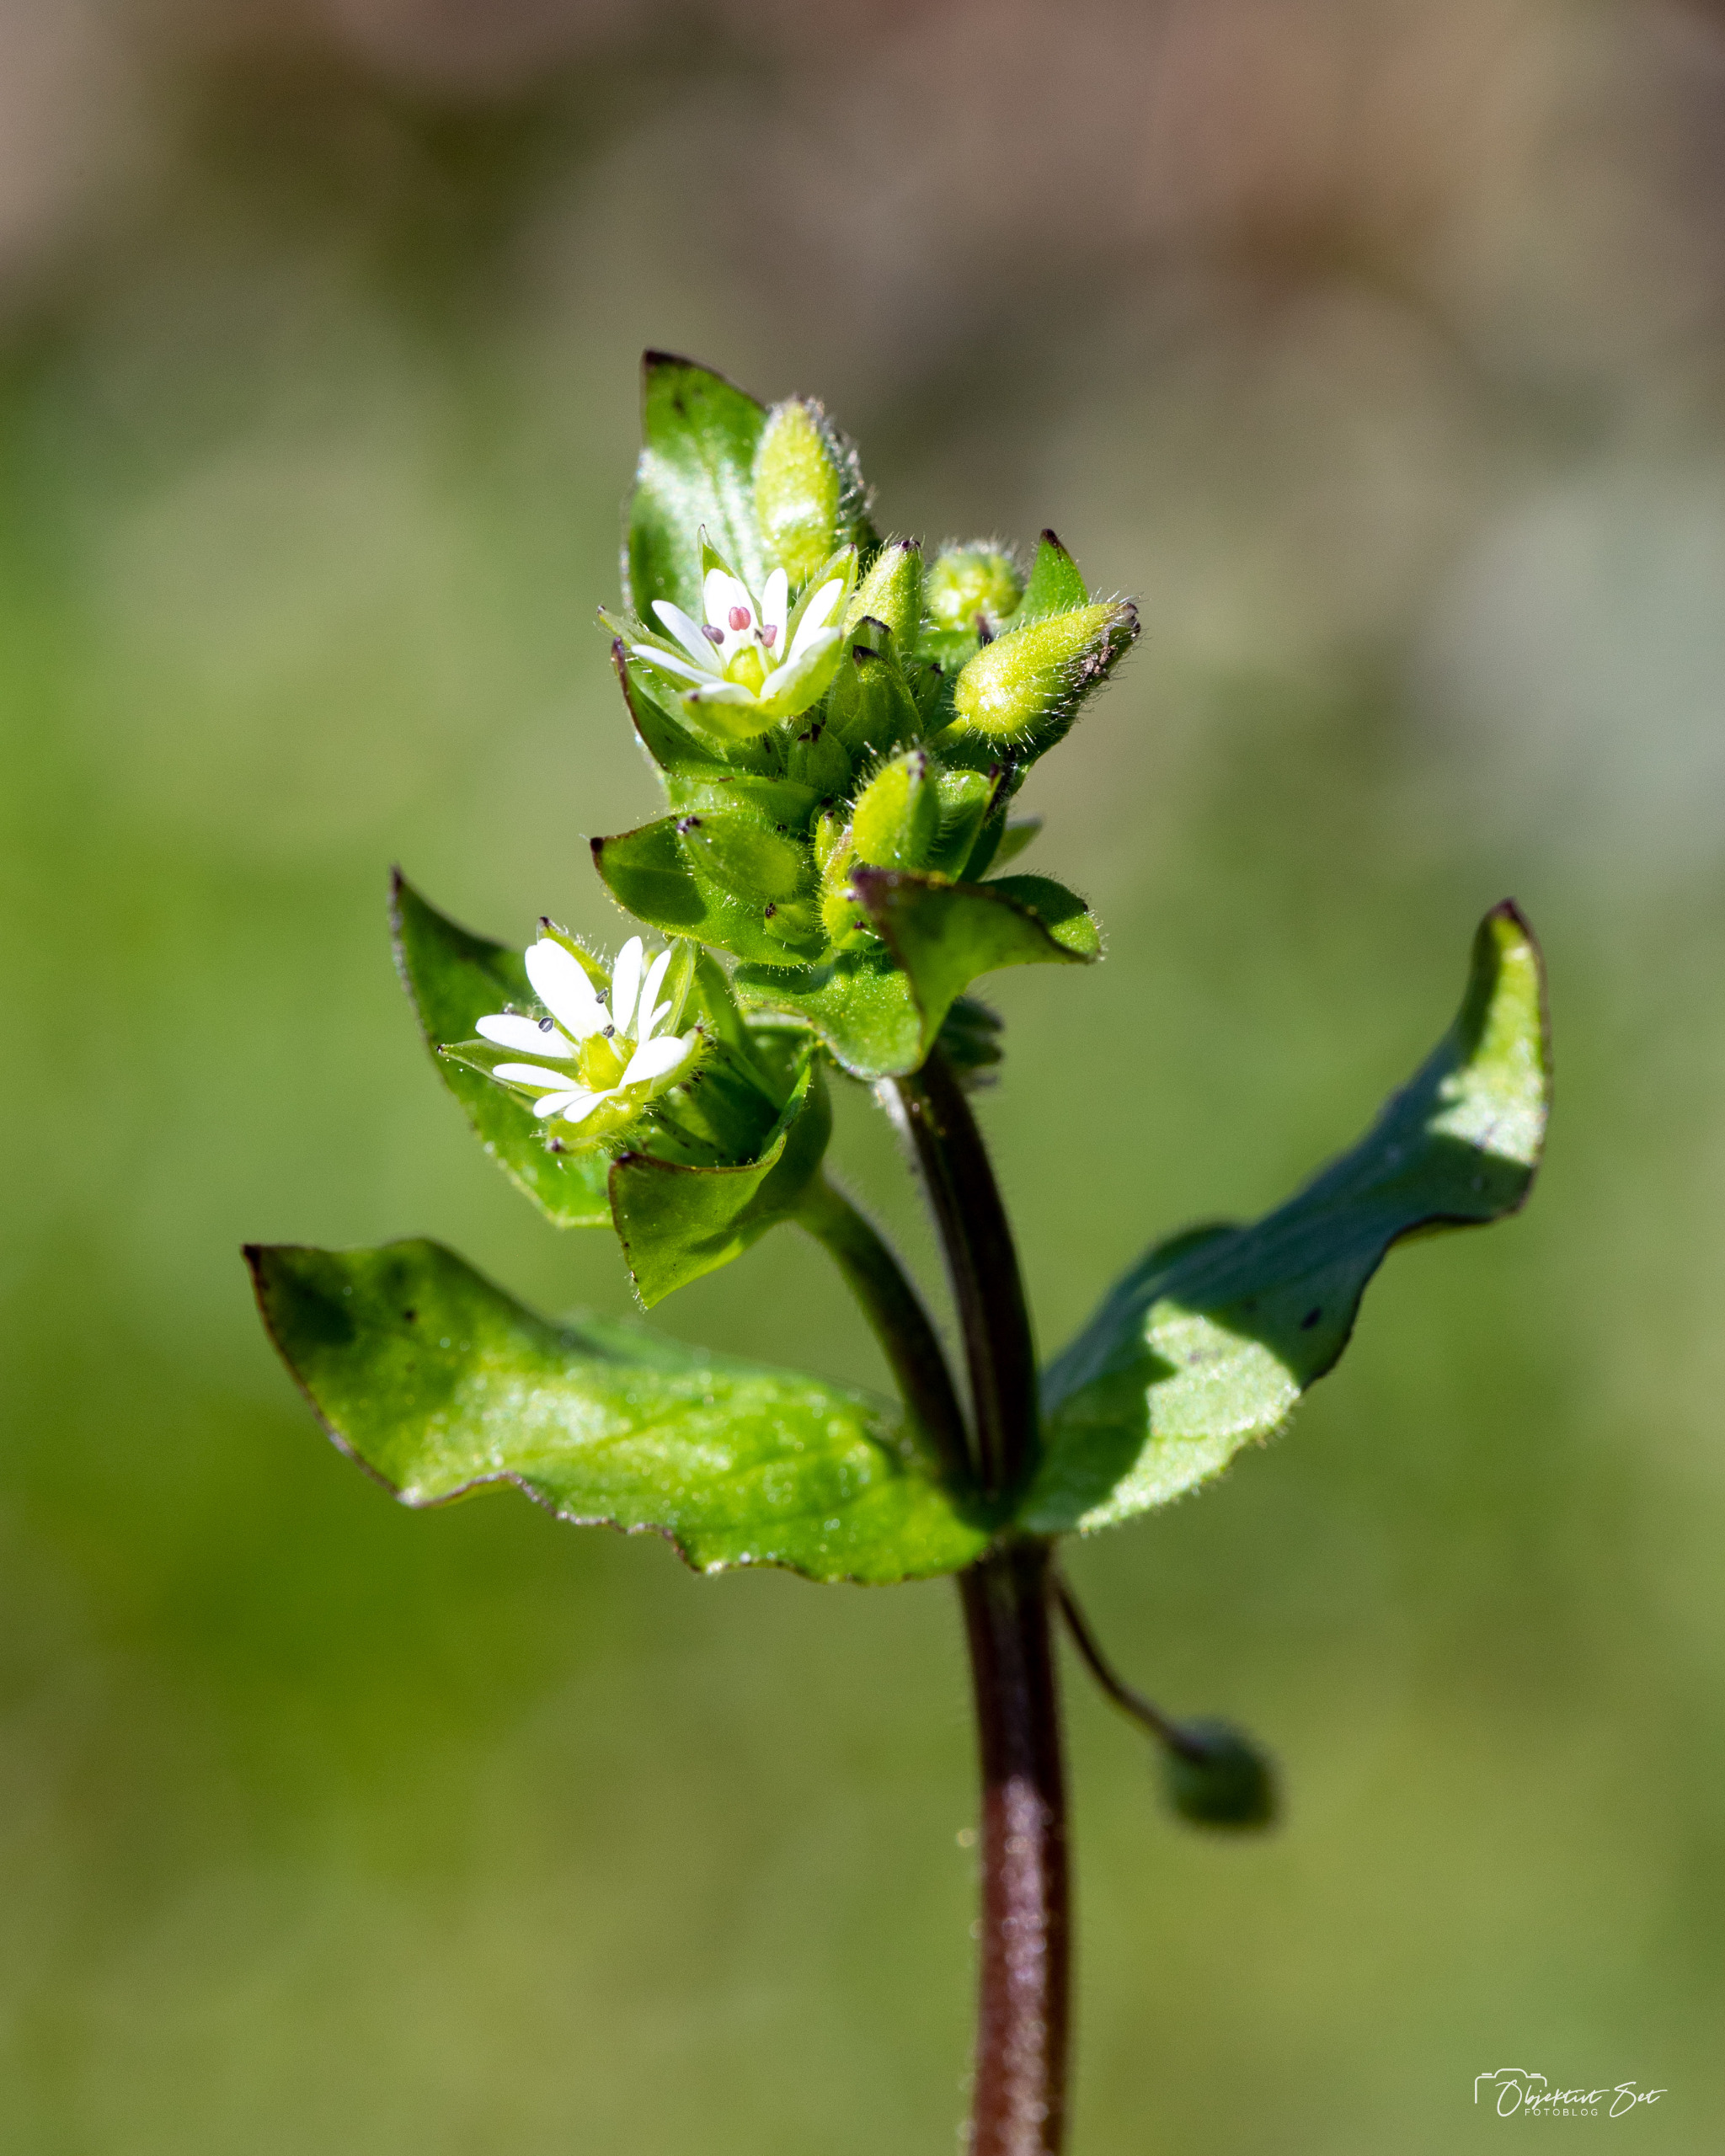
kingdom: Plantae
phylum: Tracheophyta
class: Magnoliopsida
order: Caryophyllales
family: Caryophyllaceae
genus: Stellaria
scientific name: Stellaria media
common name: Almindelig fuglegræs
